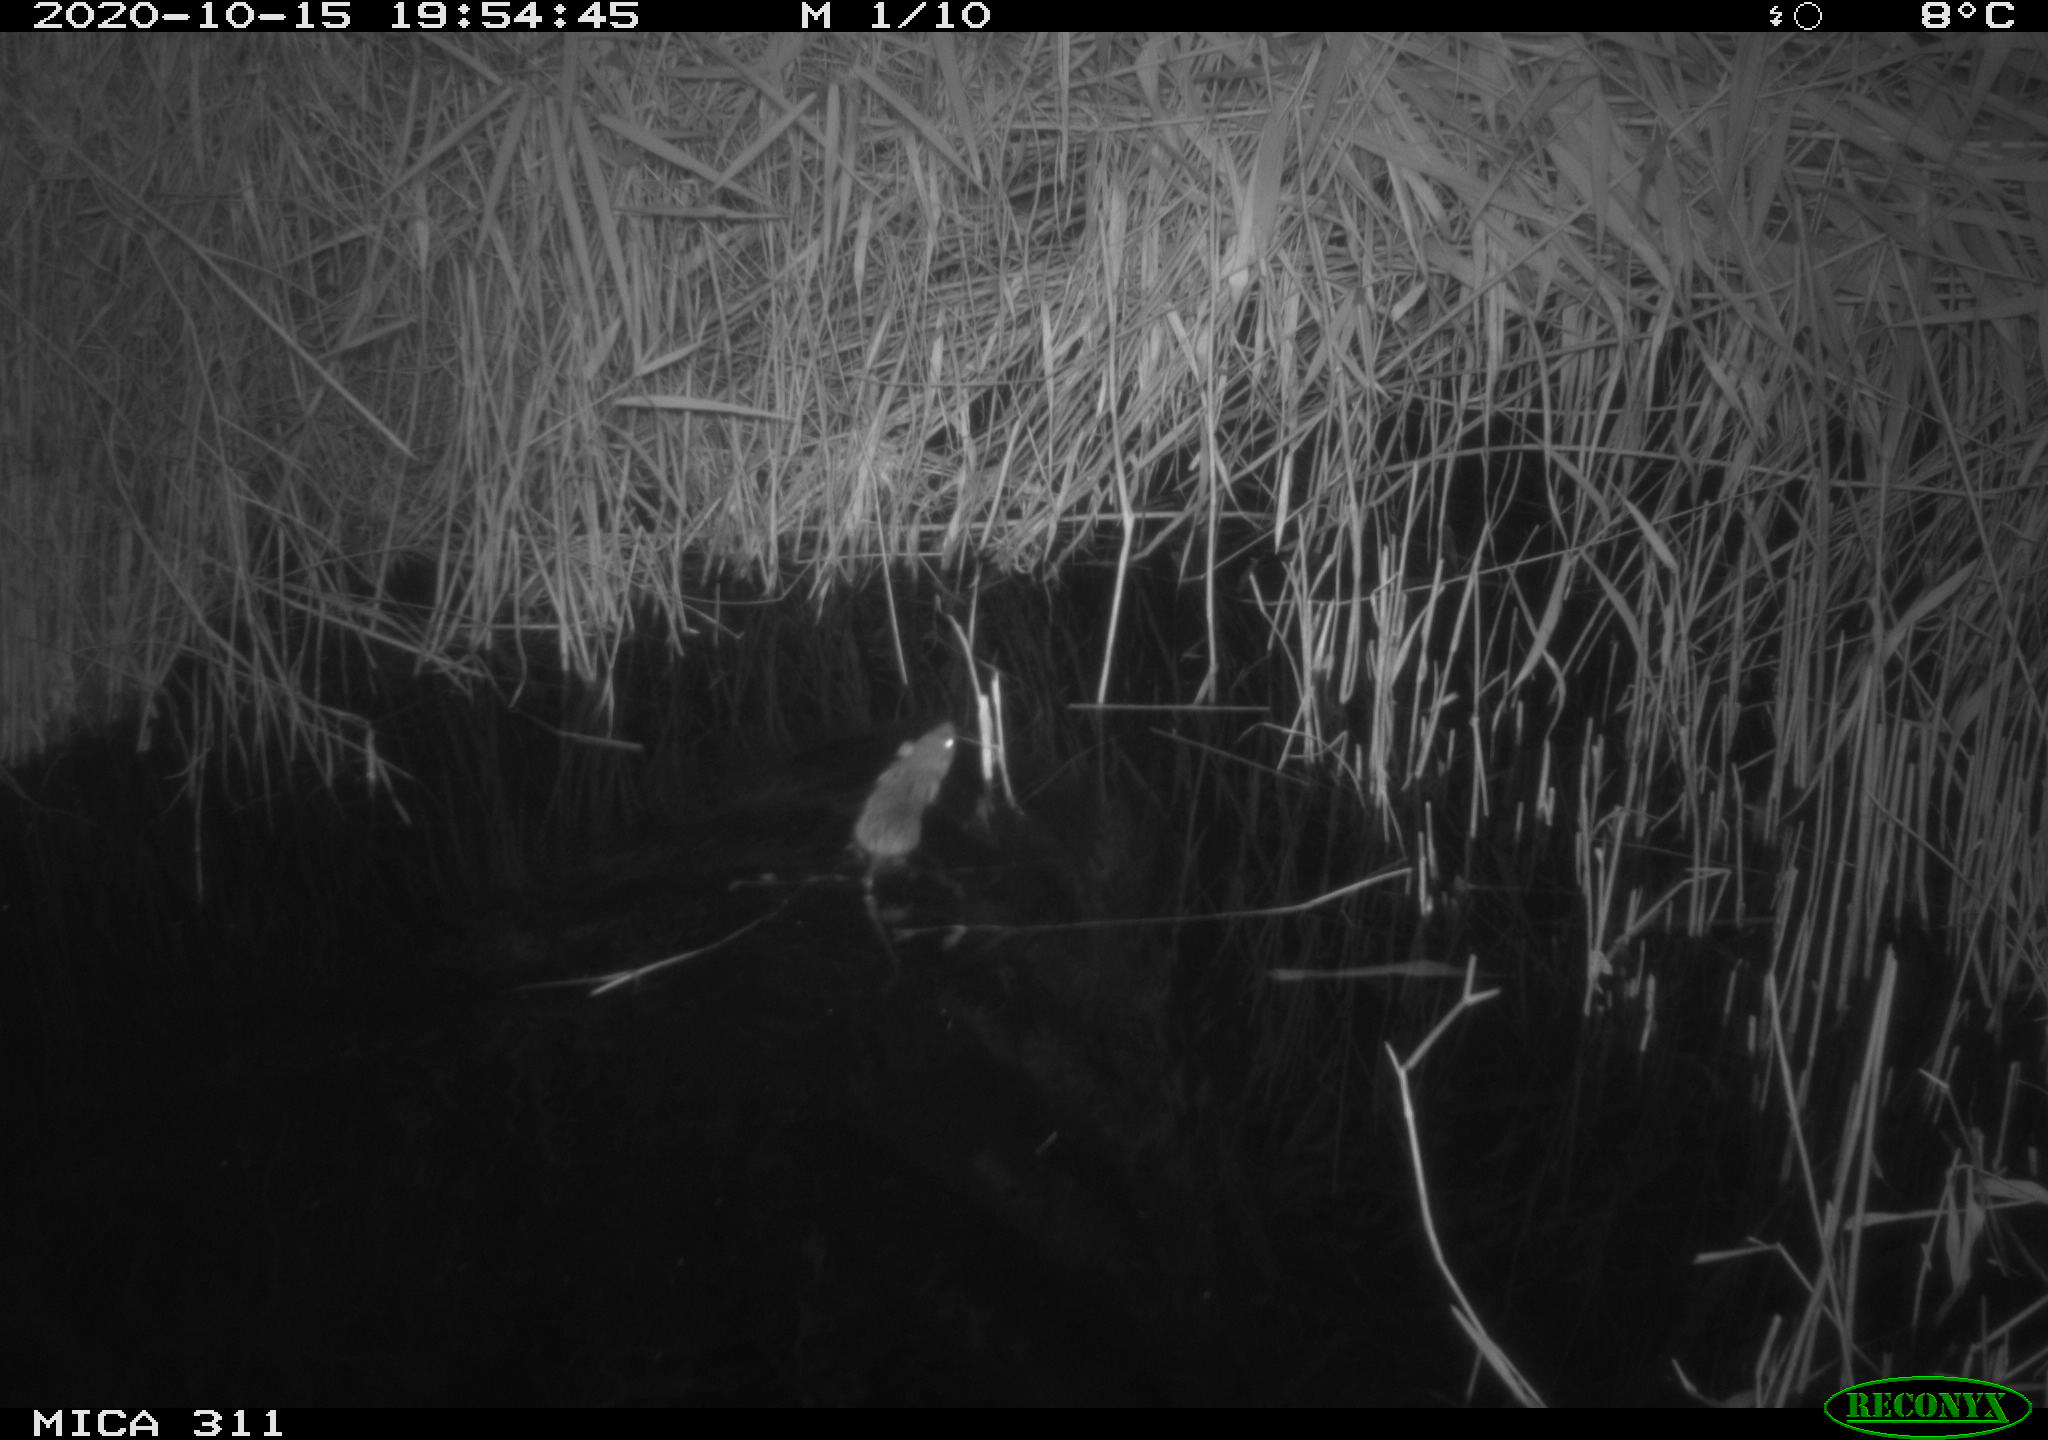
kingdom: Animalia
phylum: Chordata
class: Mammalia
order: Rodentia
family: Muridae
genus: Rattus
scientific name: Rattus norvegicus
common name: Brown rat
